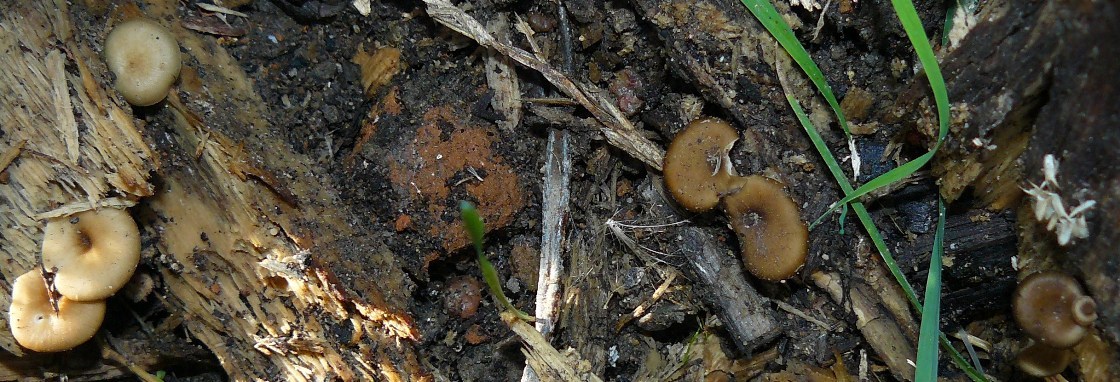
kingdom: Fungi
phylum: Basidiomycota
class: Agaricomycetes
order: Polyporales
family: Polyporaceae
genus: Picipes
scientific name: Picipes badius
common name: kastaniebrun stilkporesvamp
